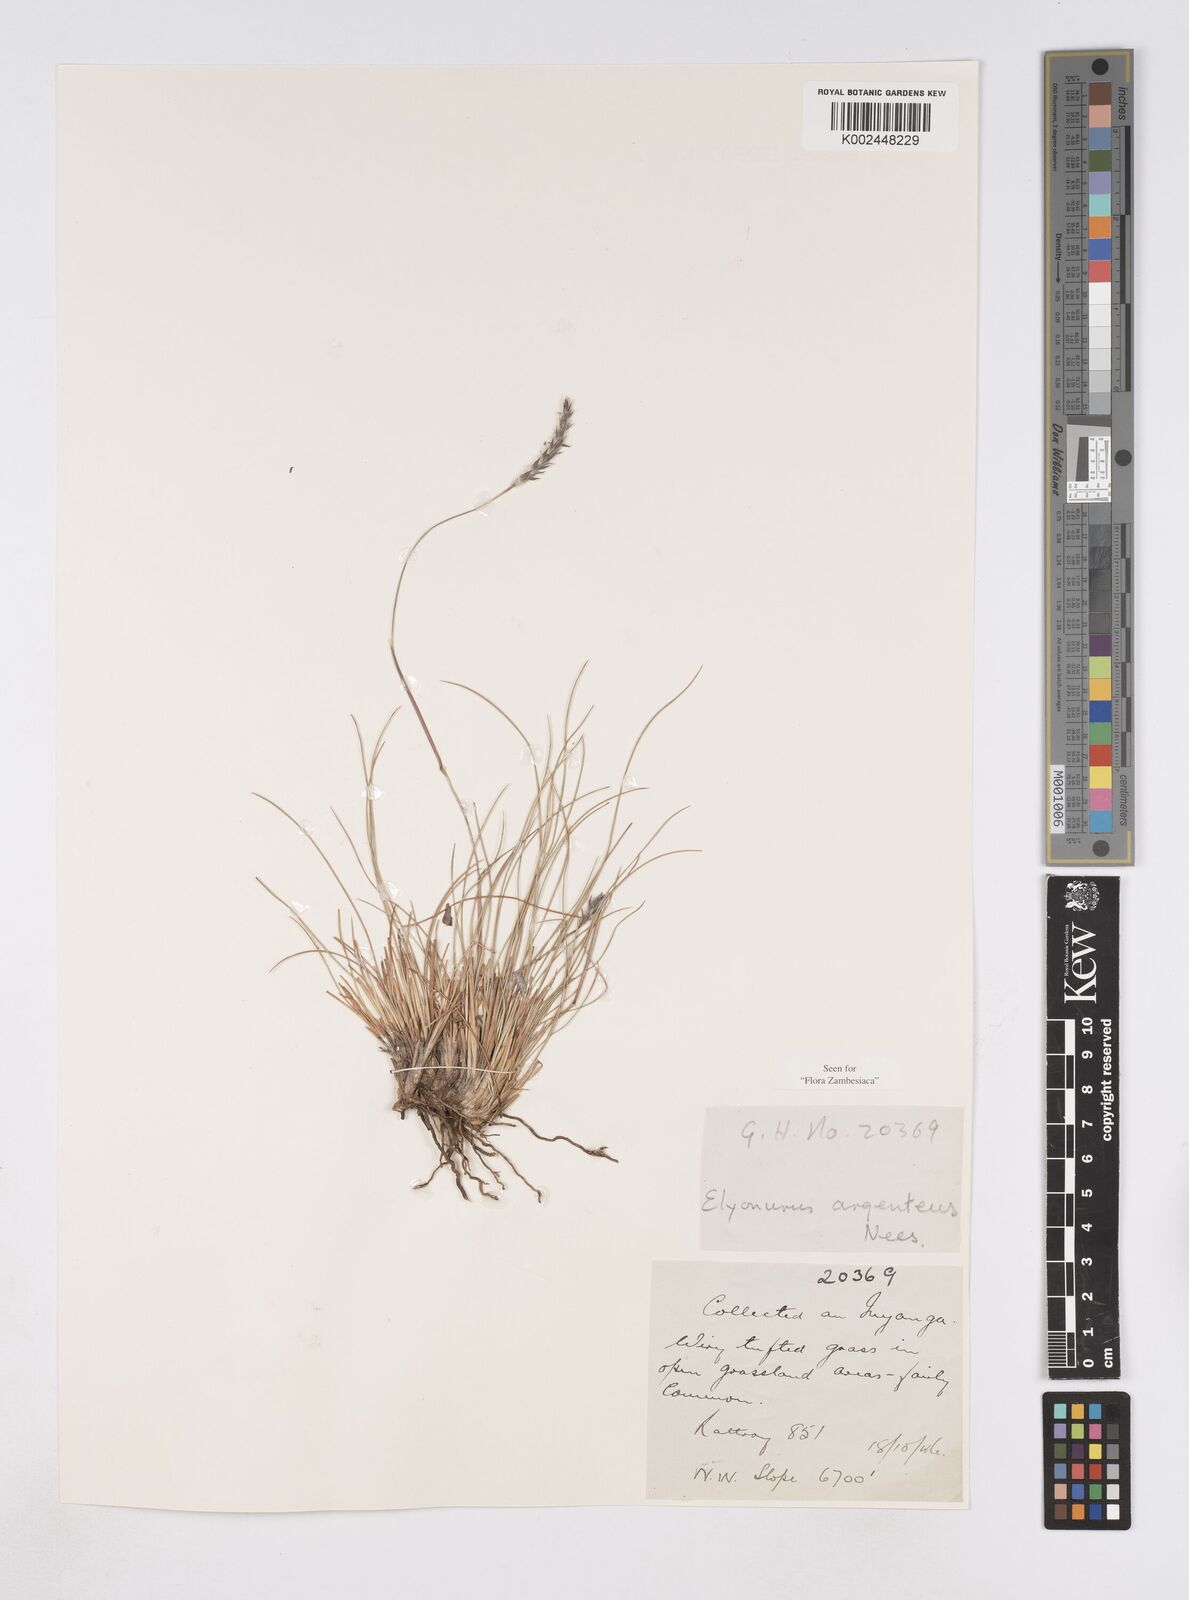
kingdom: Plantae
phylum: Tracheophyta
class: Liliopsida
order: Poales
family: Poaceae
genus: Elionurus
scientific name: Elionurus muticus
